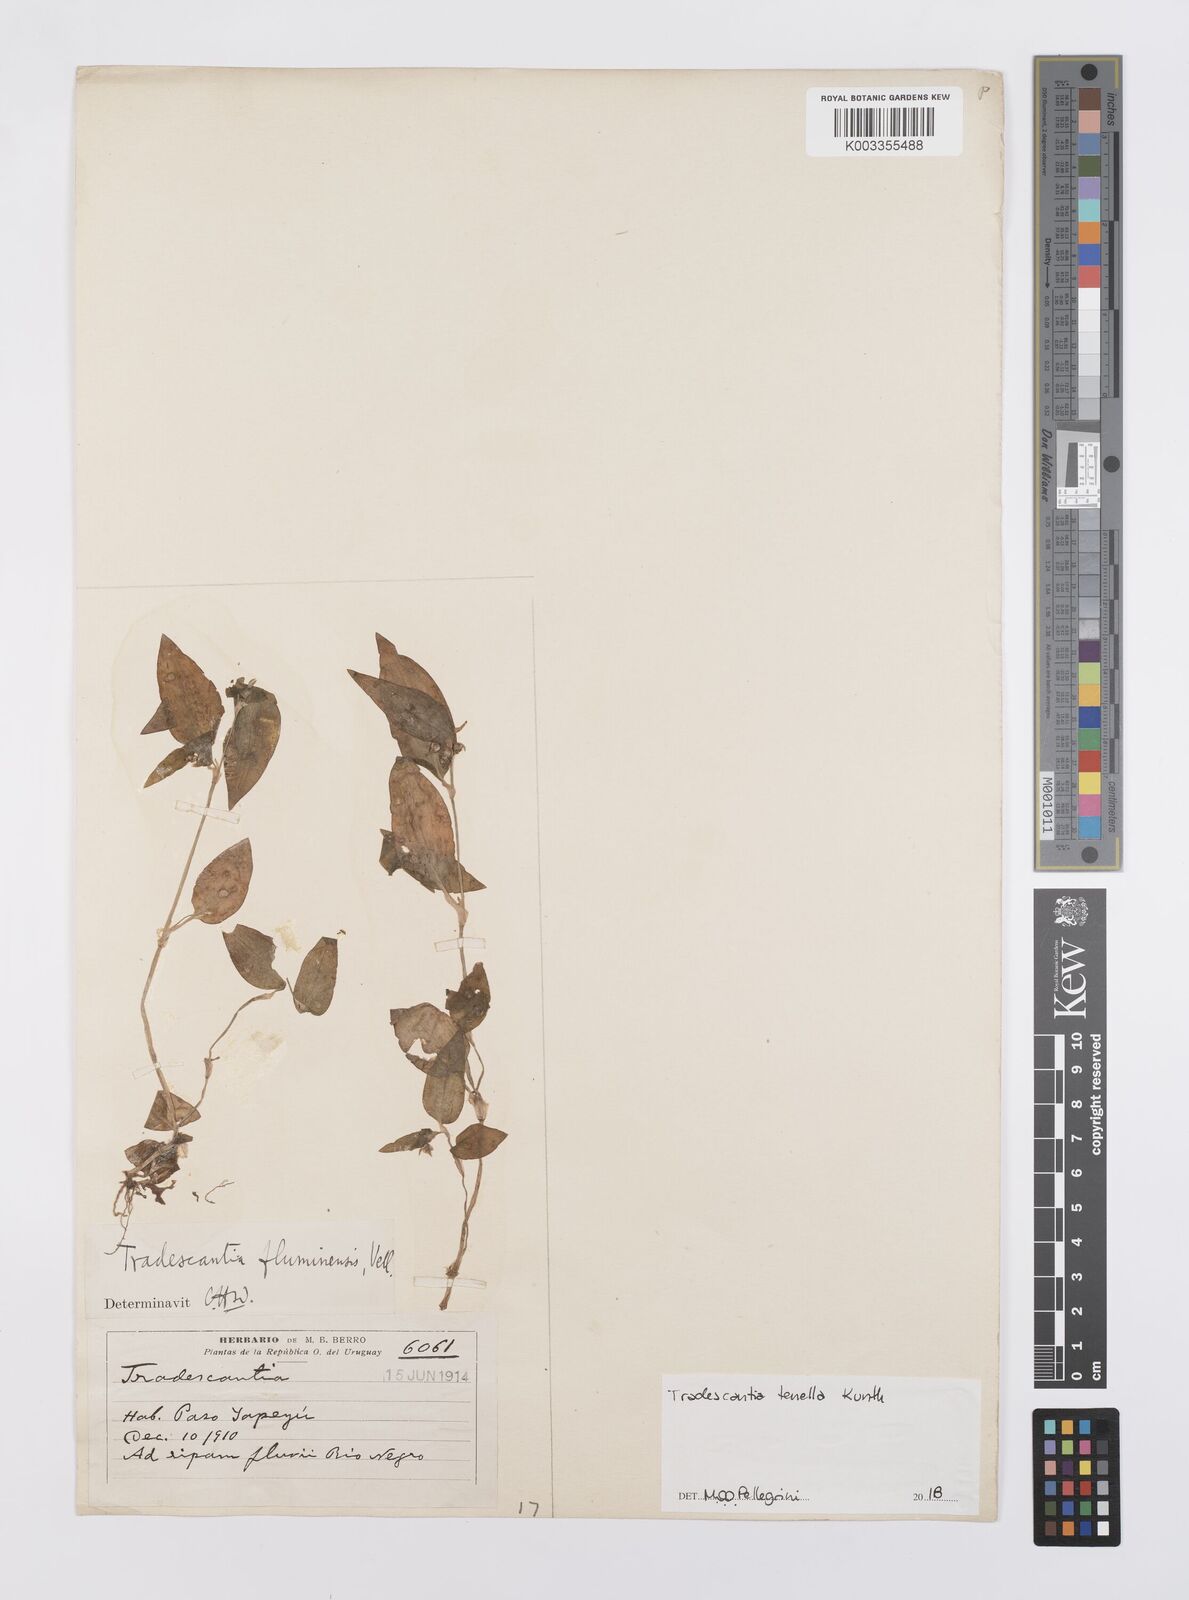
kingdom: Plantae
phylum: Tracheophyta
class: Liliopsida
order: Commelinales
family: Commelinaceae
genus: Tradescantia
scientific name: Tradescantia tenella
